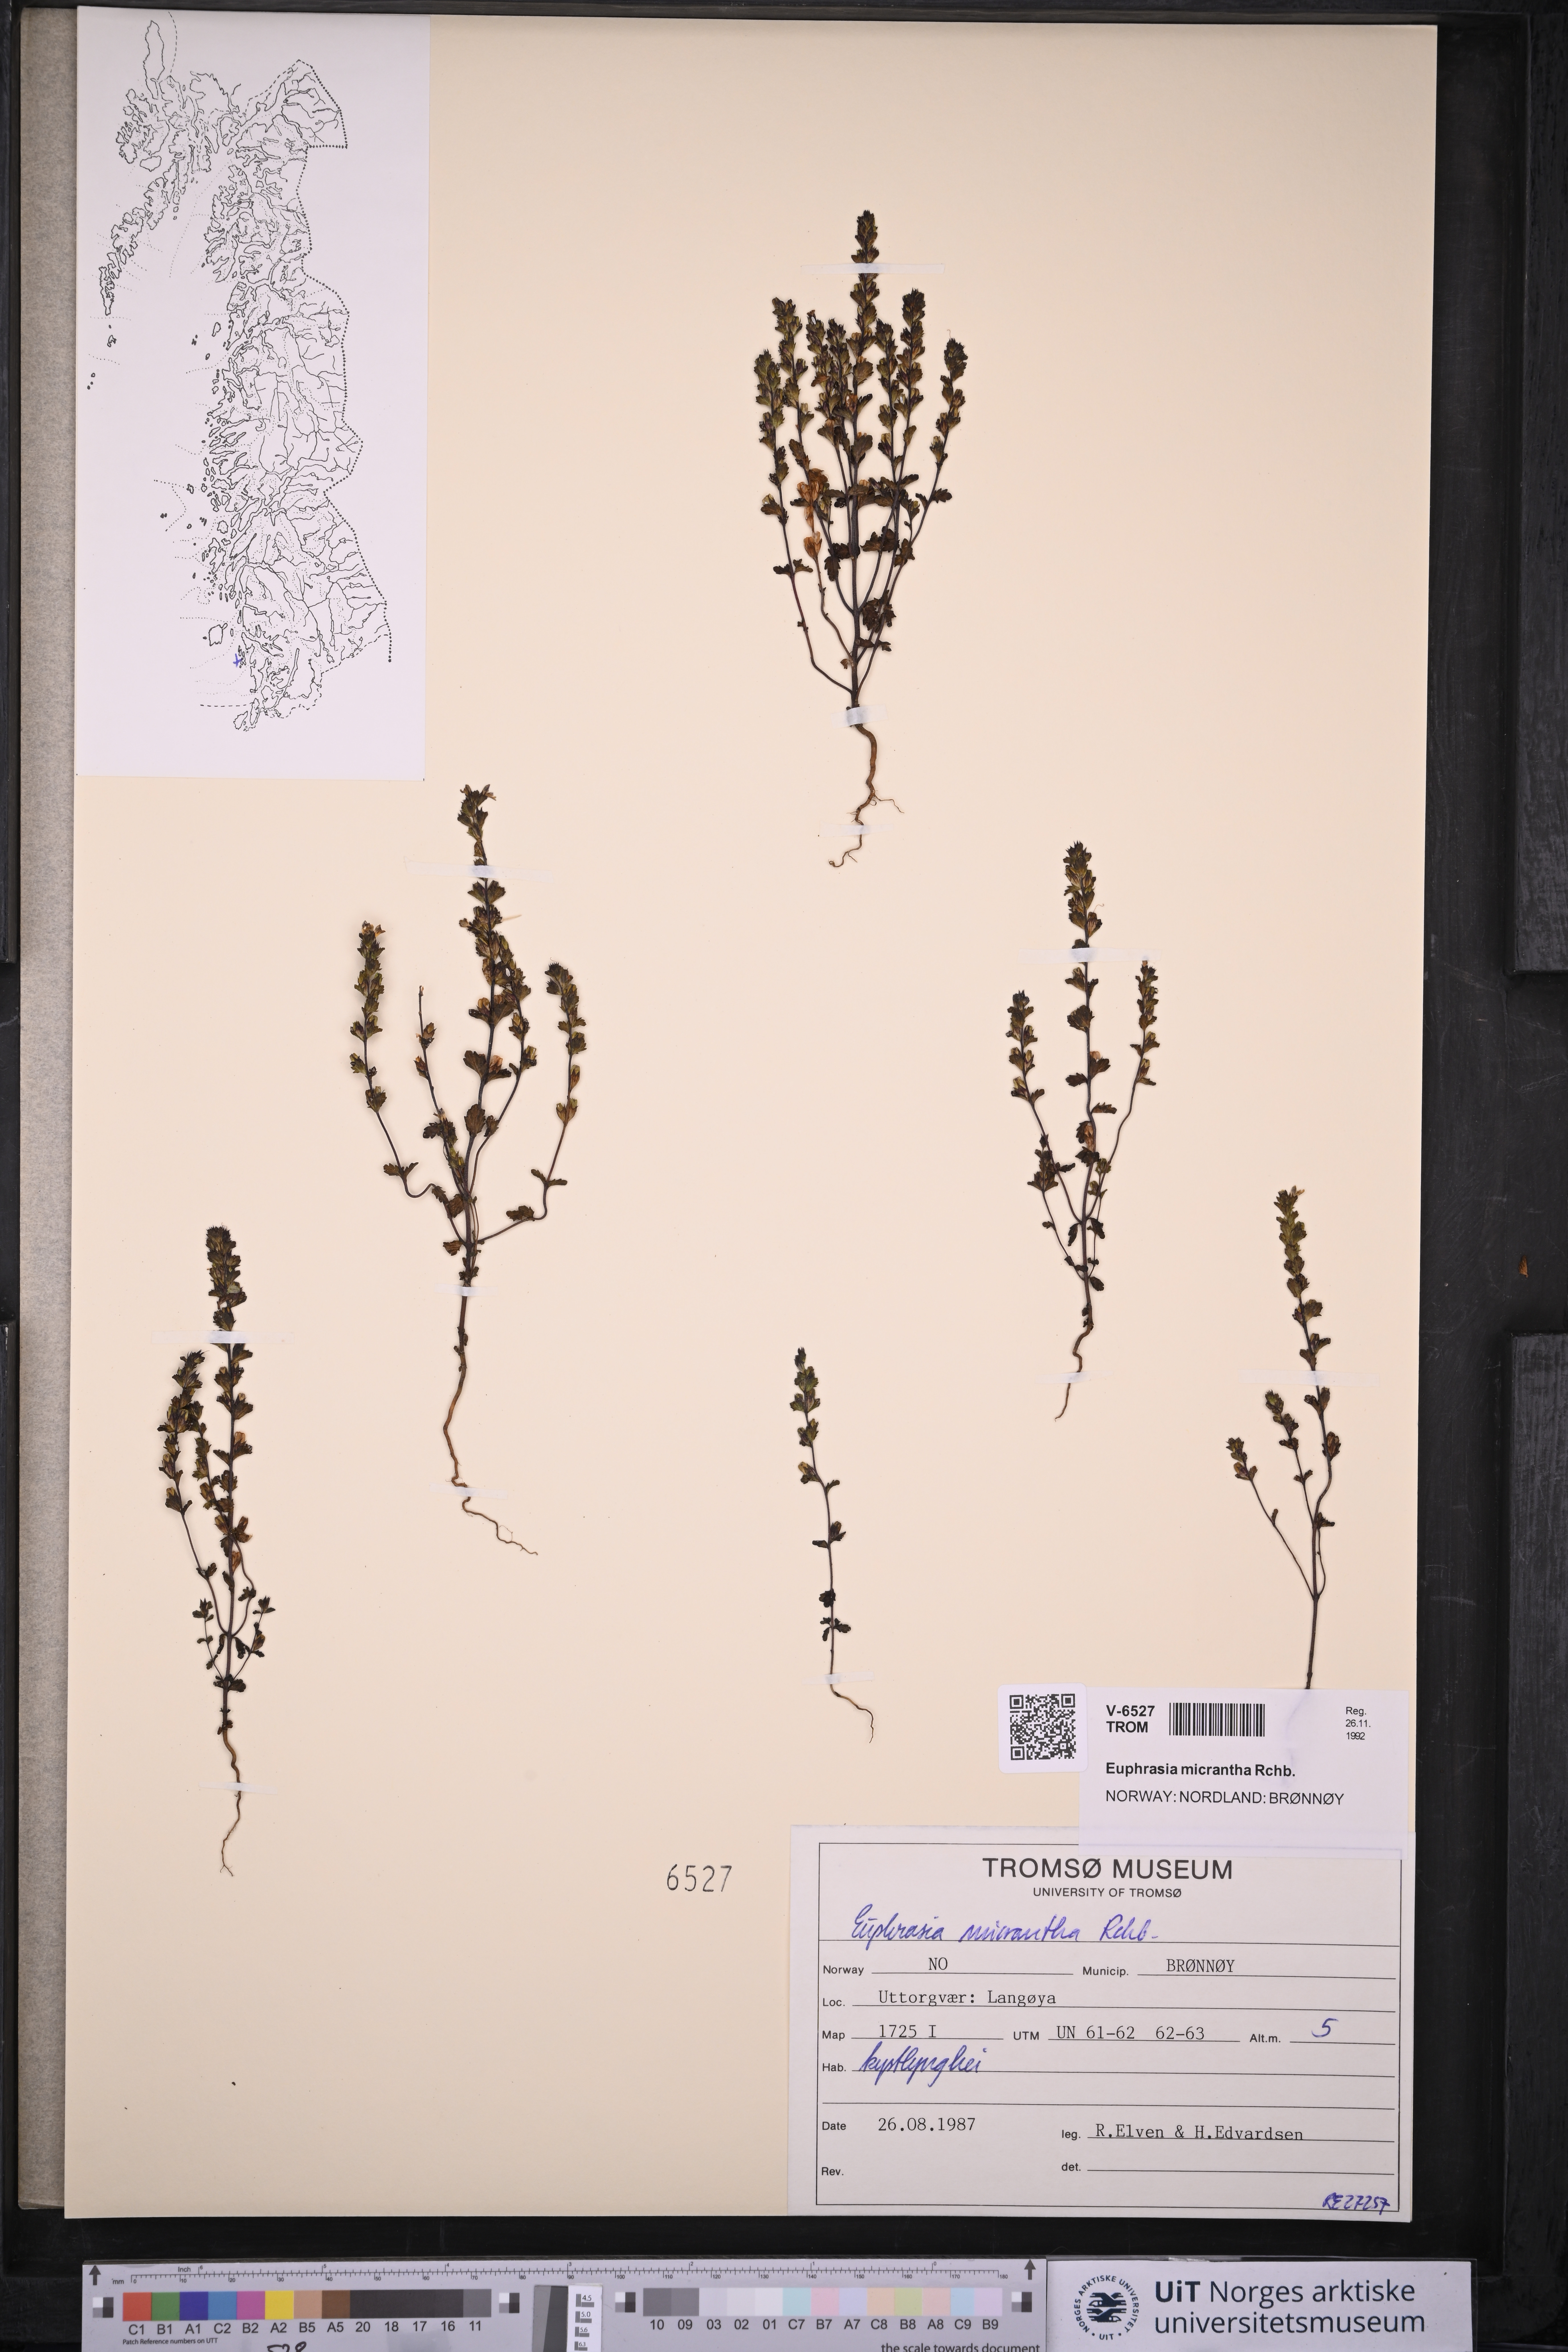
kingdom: Plantae
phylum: Tracheophyta
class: Magnoliopsida
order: Lamiales
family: Orobanchaceae
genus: Euphrasia
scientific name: Euphrasia micrantha
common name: Northern eyebright
